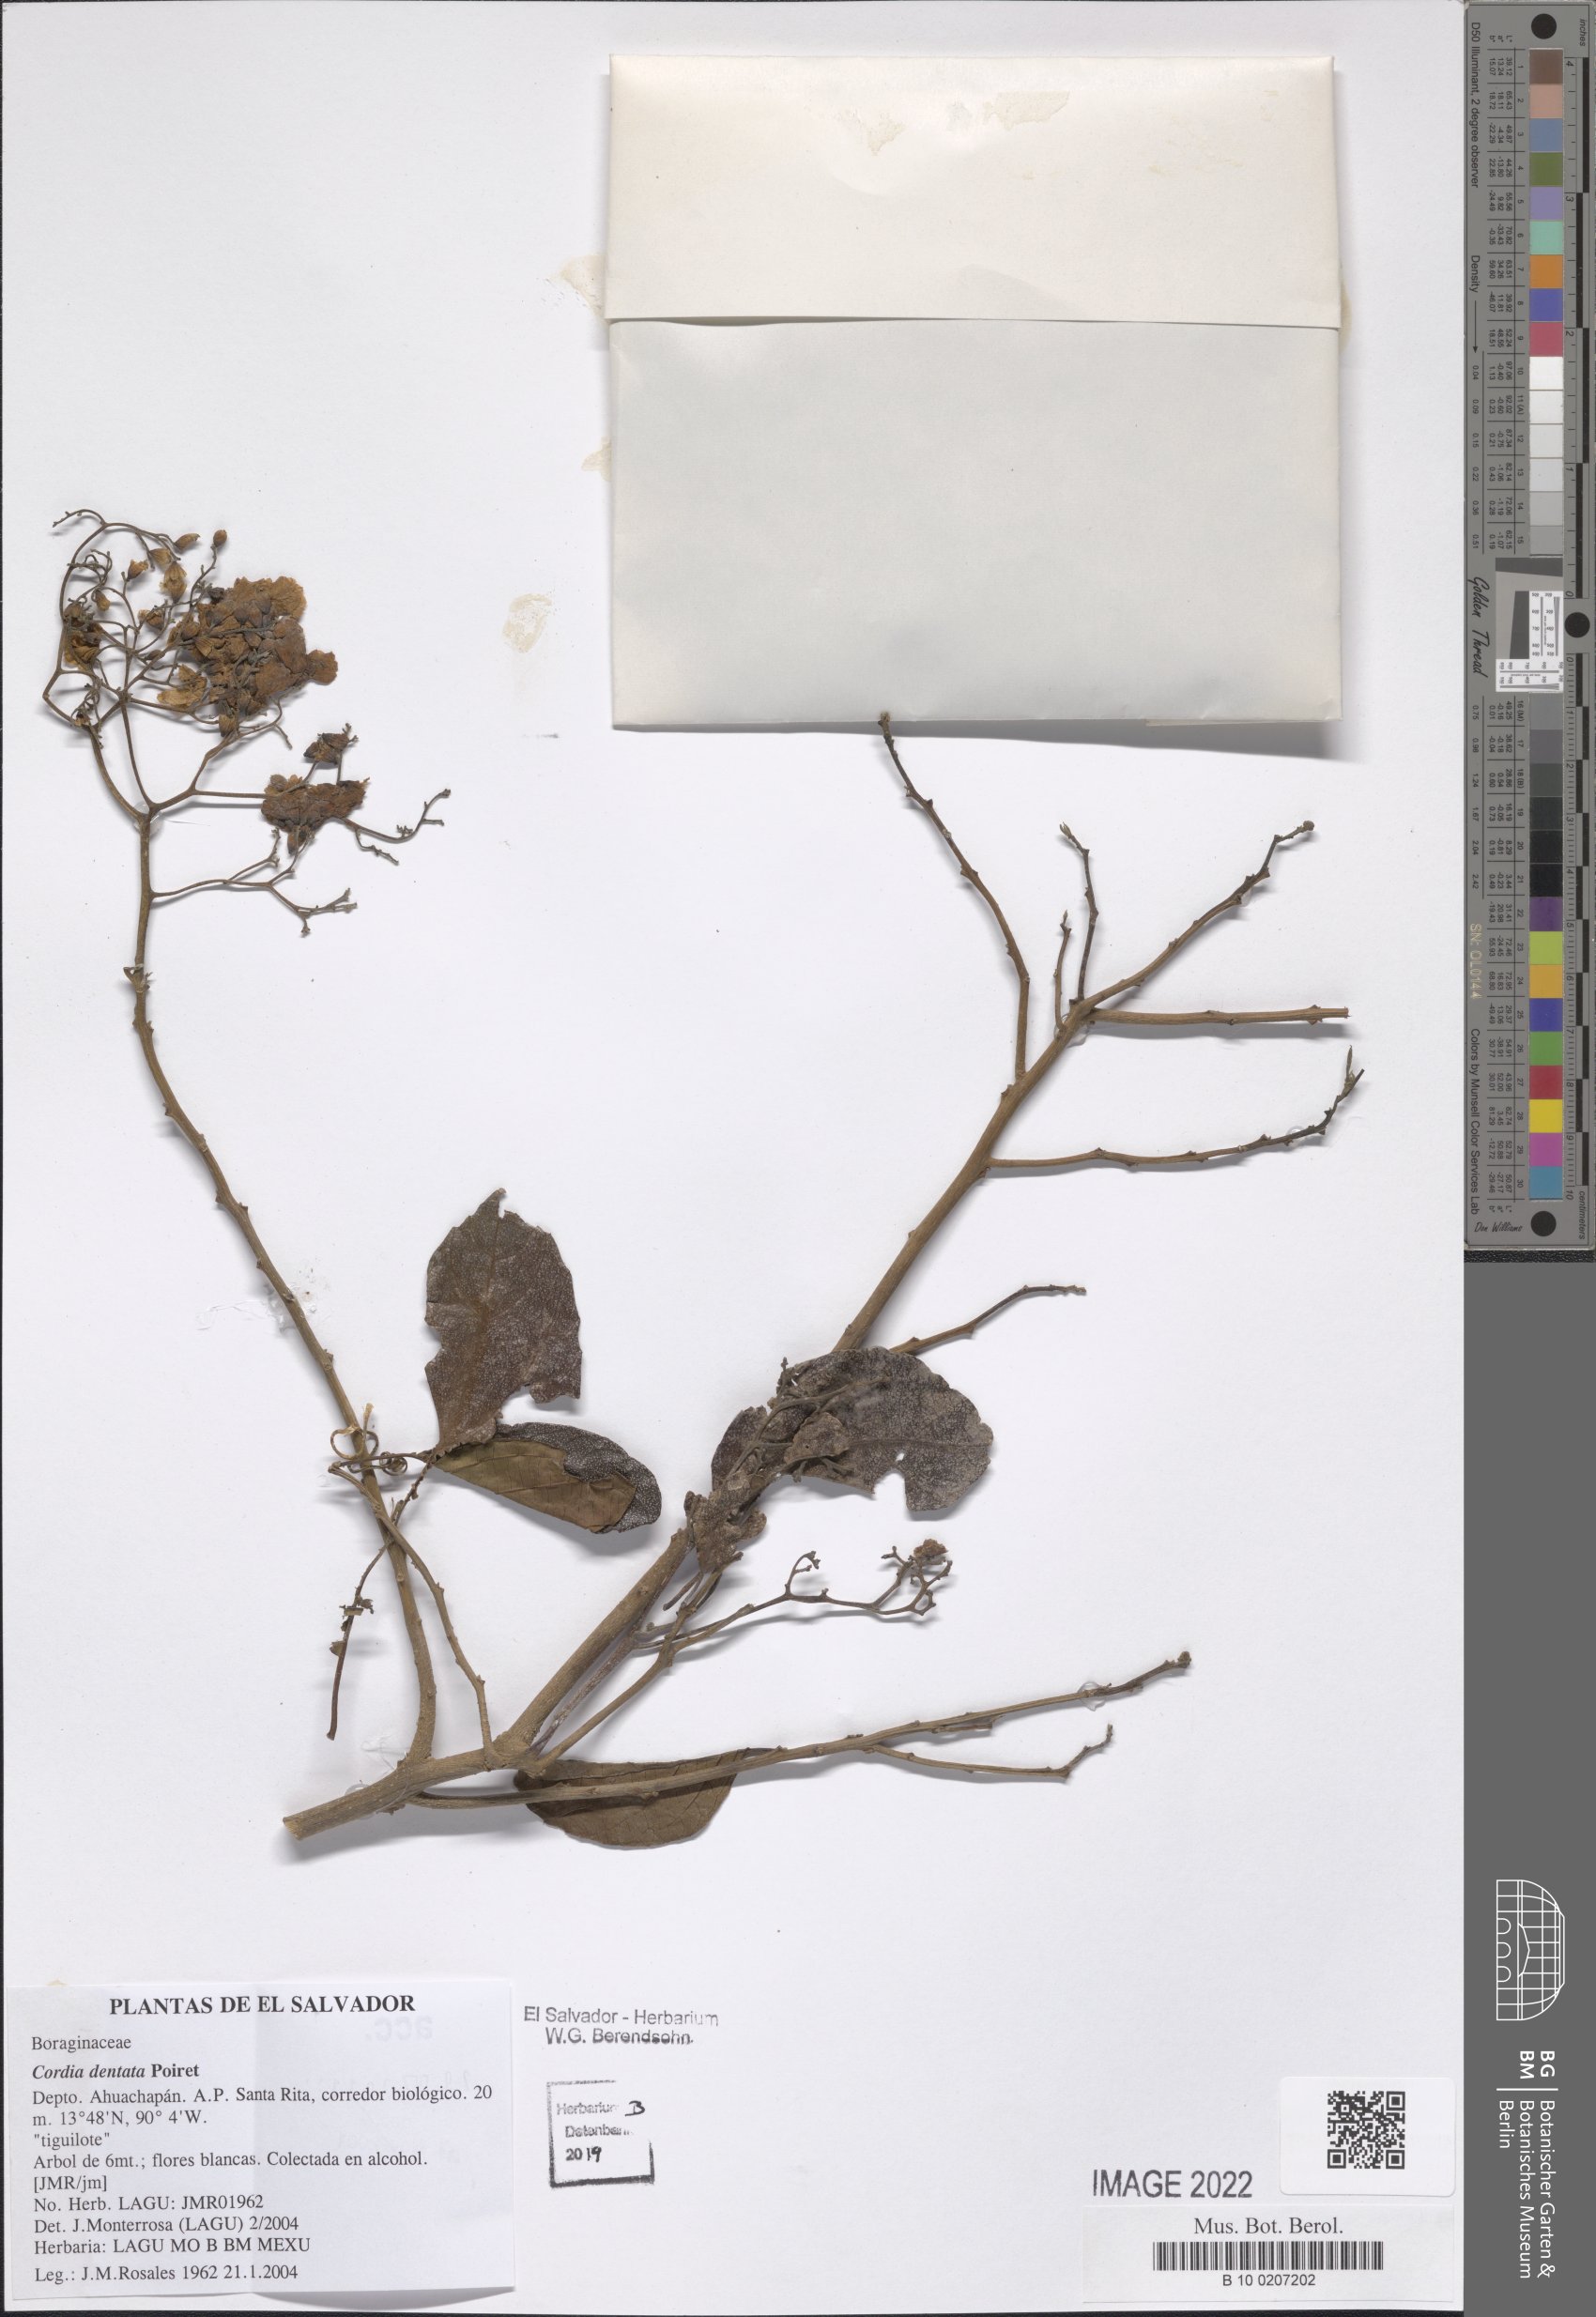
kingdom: Plantae
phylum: Tracheophyta
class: Magnoliopsida
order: Boraginales
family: Cordiaceae
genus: Cordia
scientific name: Cordia dentata
